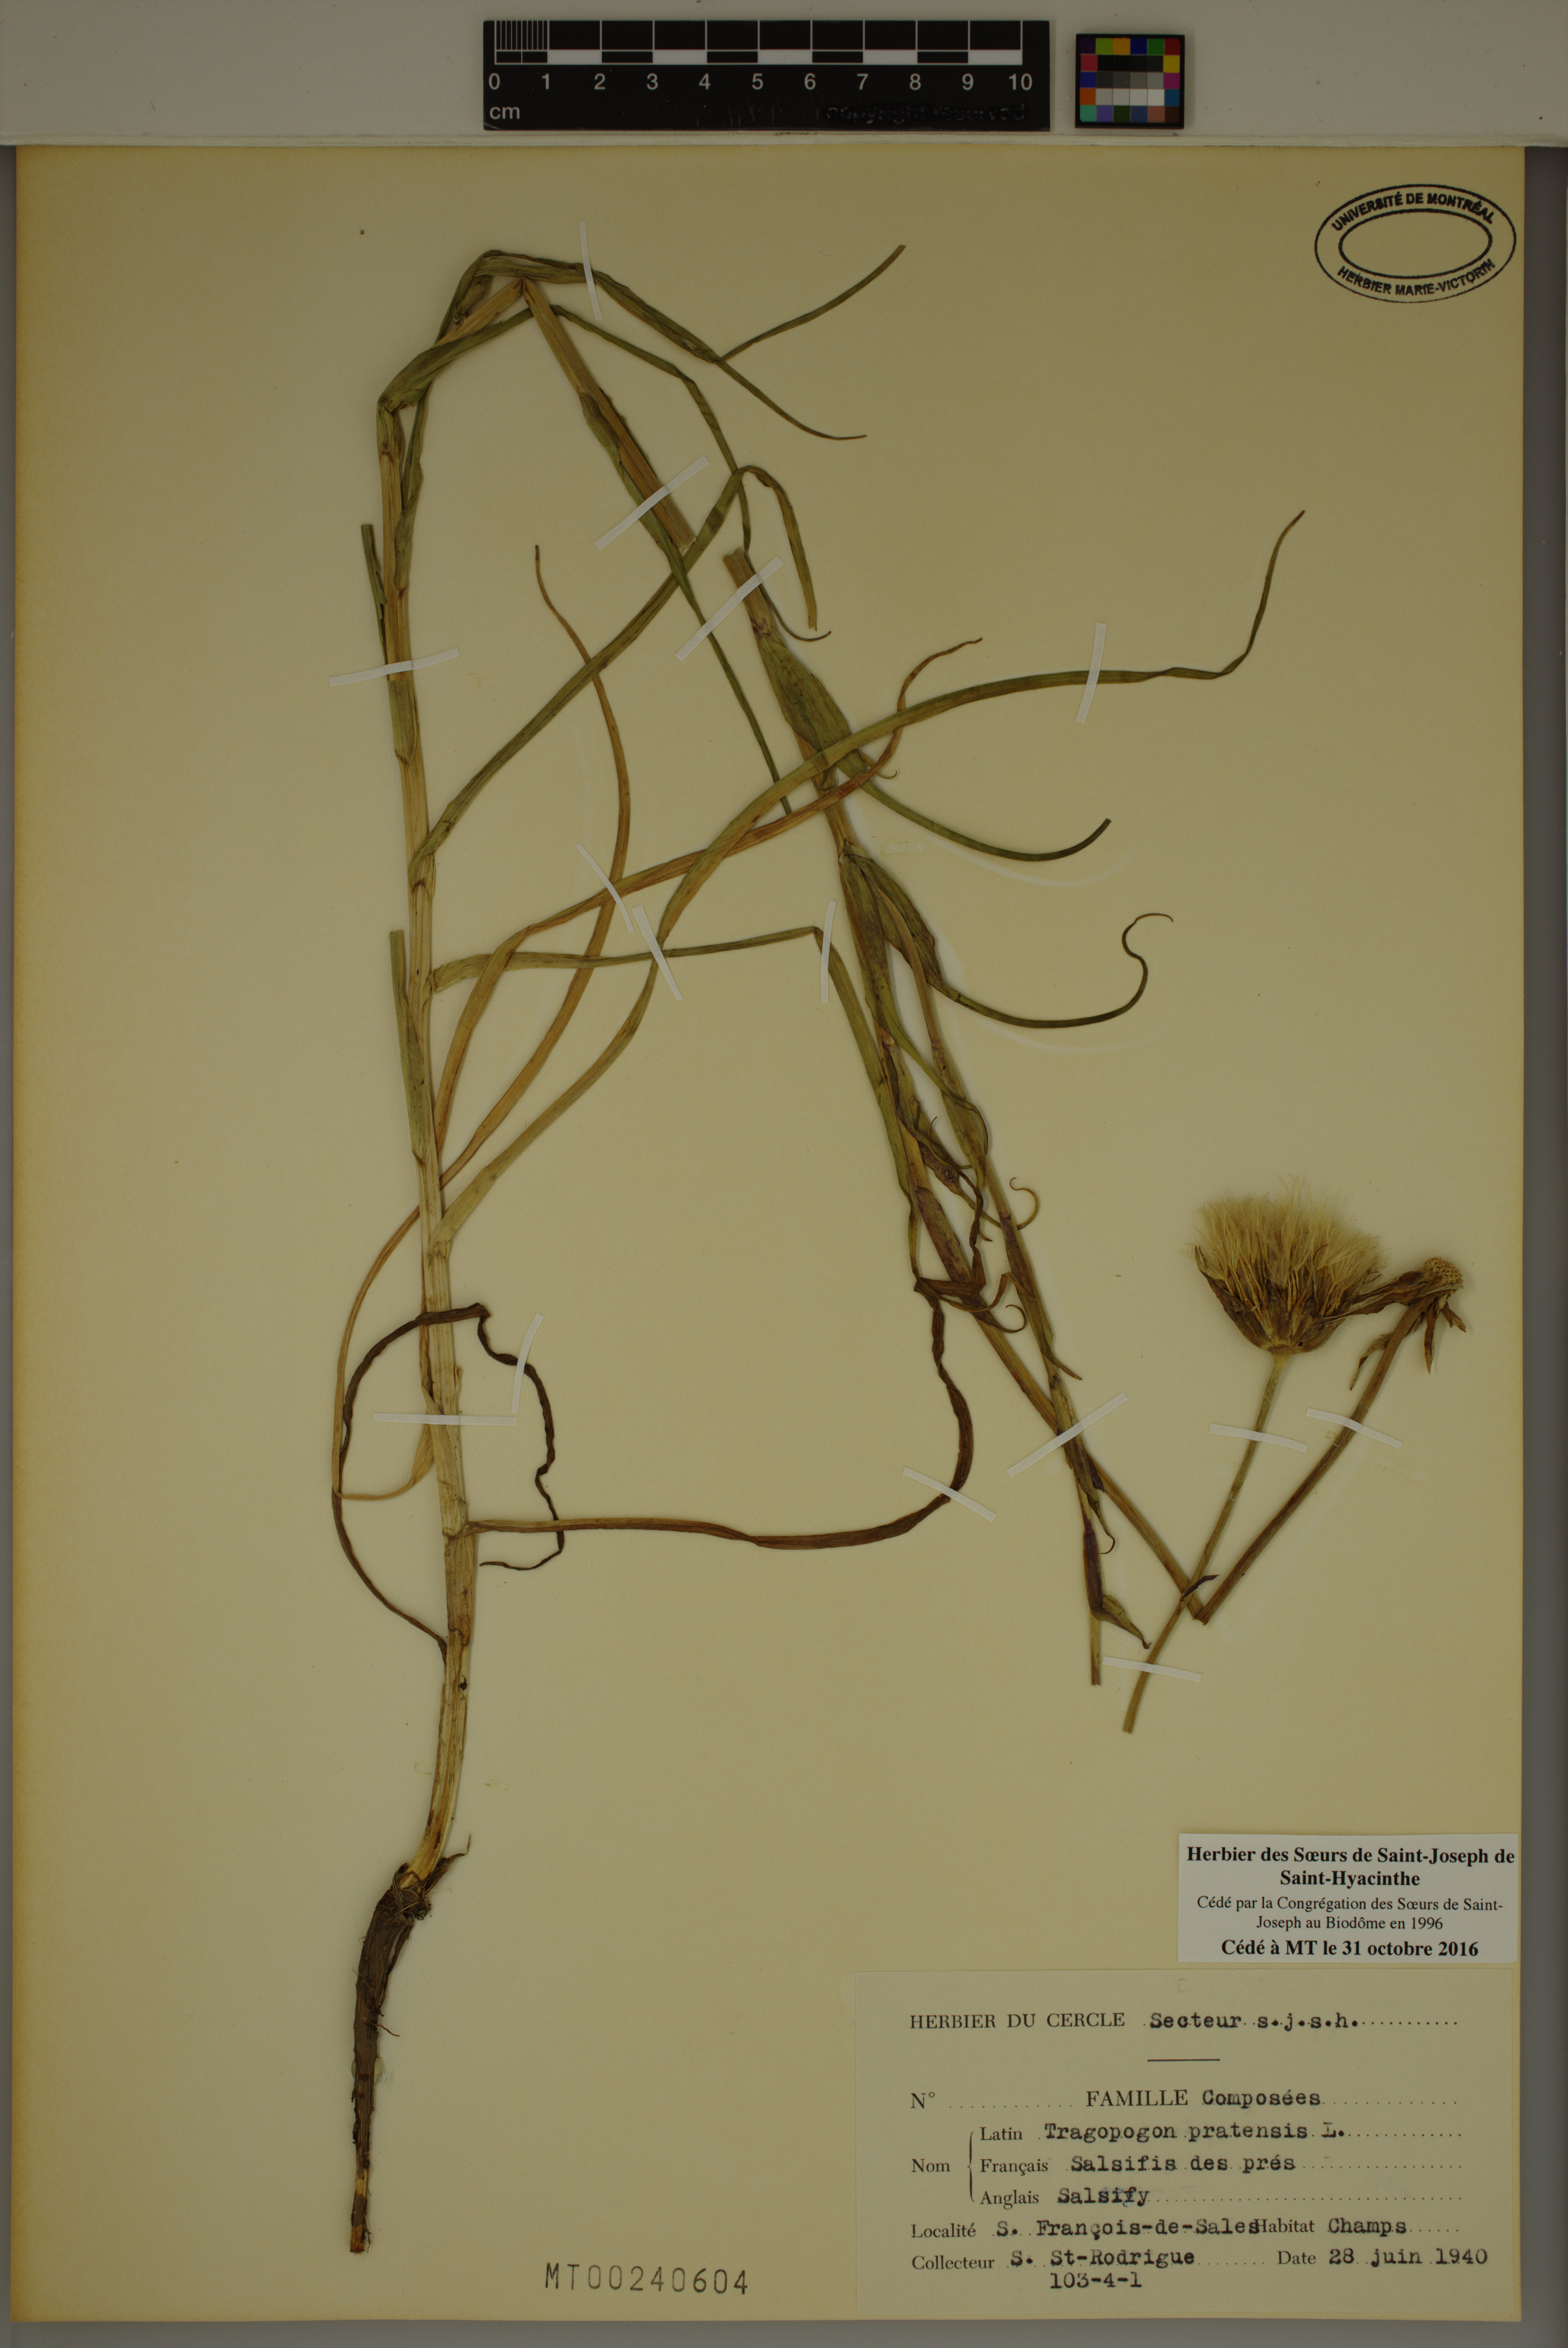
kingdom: Plantae
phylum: Tracheophyta
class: Magnoliopsida
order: Asterales
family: Asteraceae
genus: Tragopogon
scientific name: Tragopogon pratensis
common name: Goat's-beard
